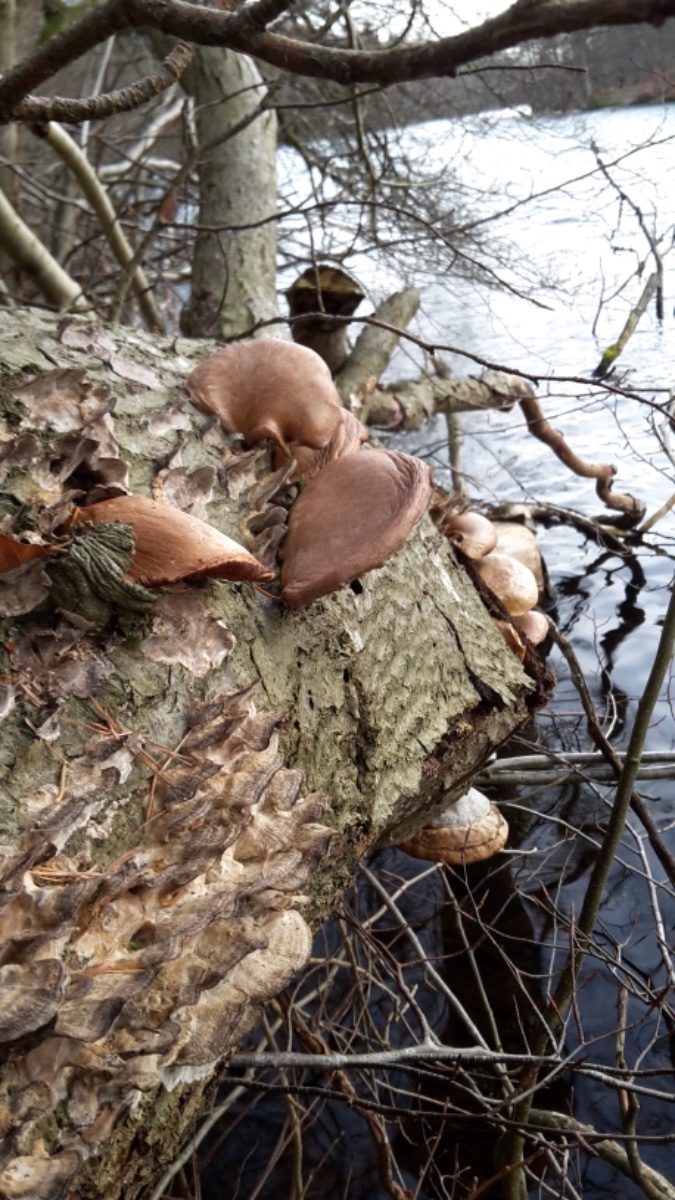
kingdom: Fungi
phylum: Basidiomycota
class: Agaricomycetes
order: Agaricales
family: Sarcomyxaceae
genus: Sarcomyxa
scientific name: Sarcomyxa serotina
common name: gummihat
